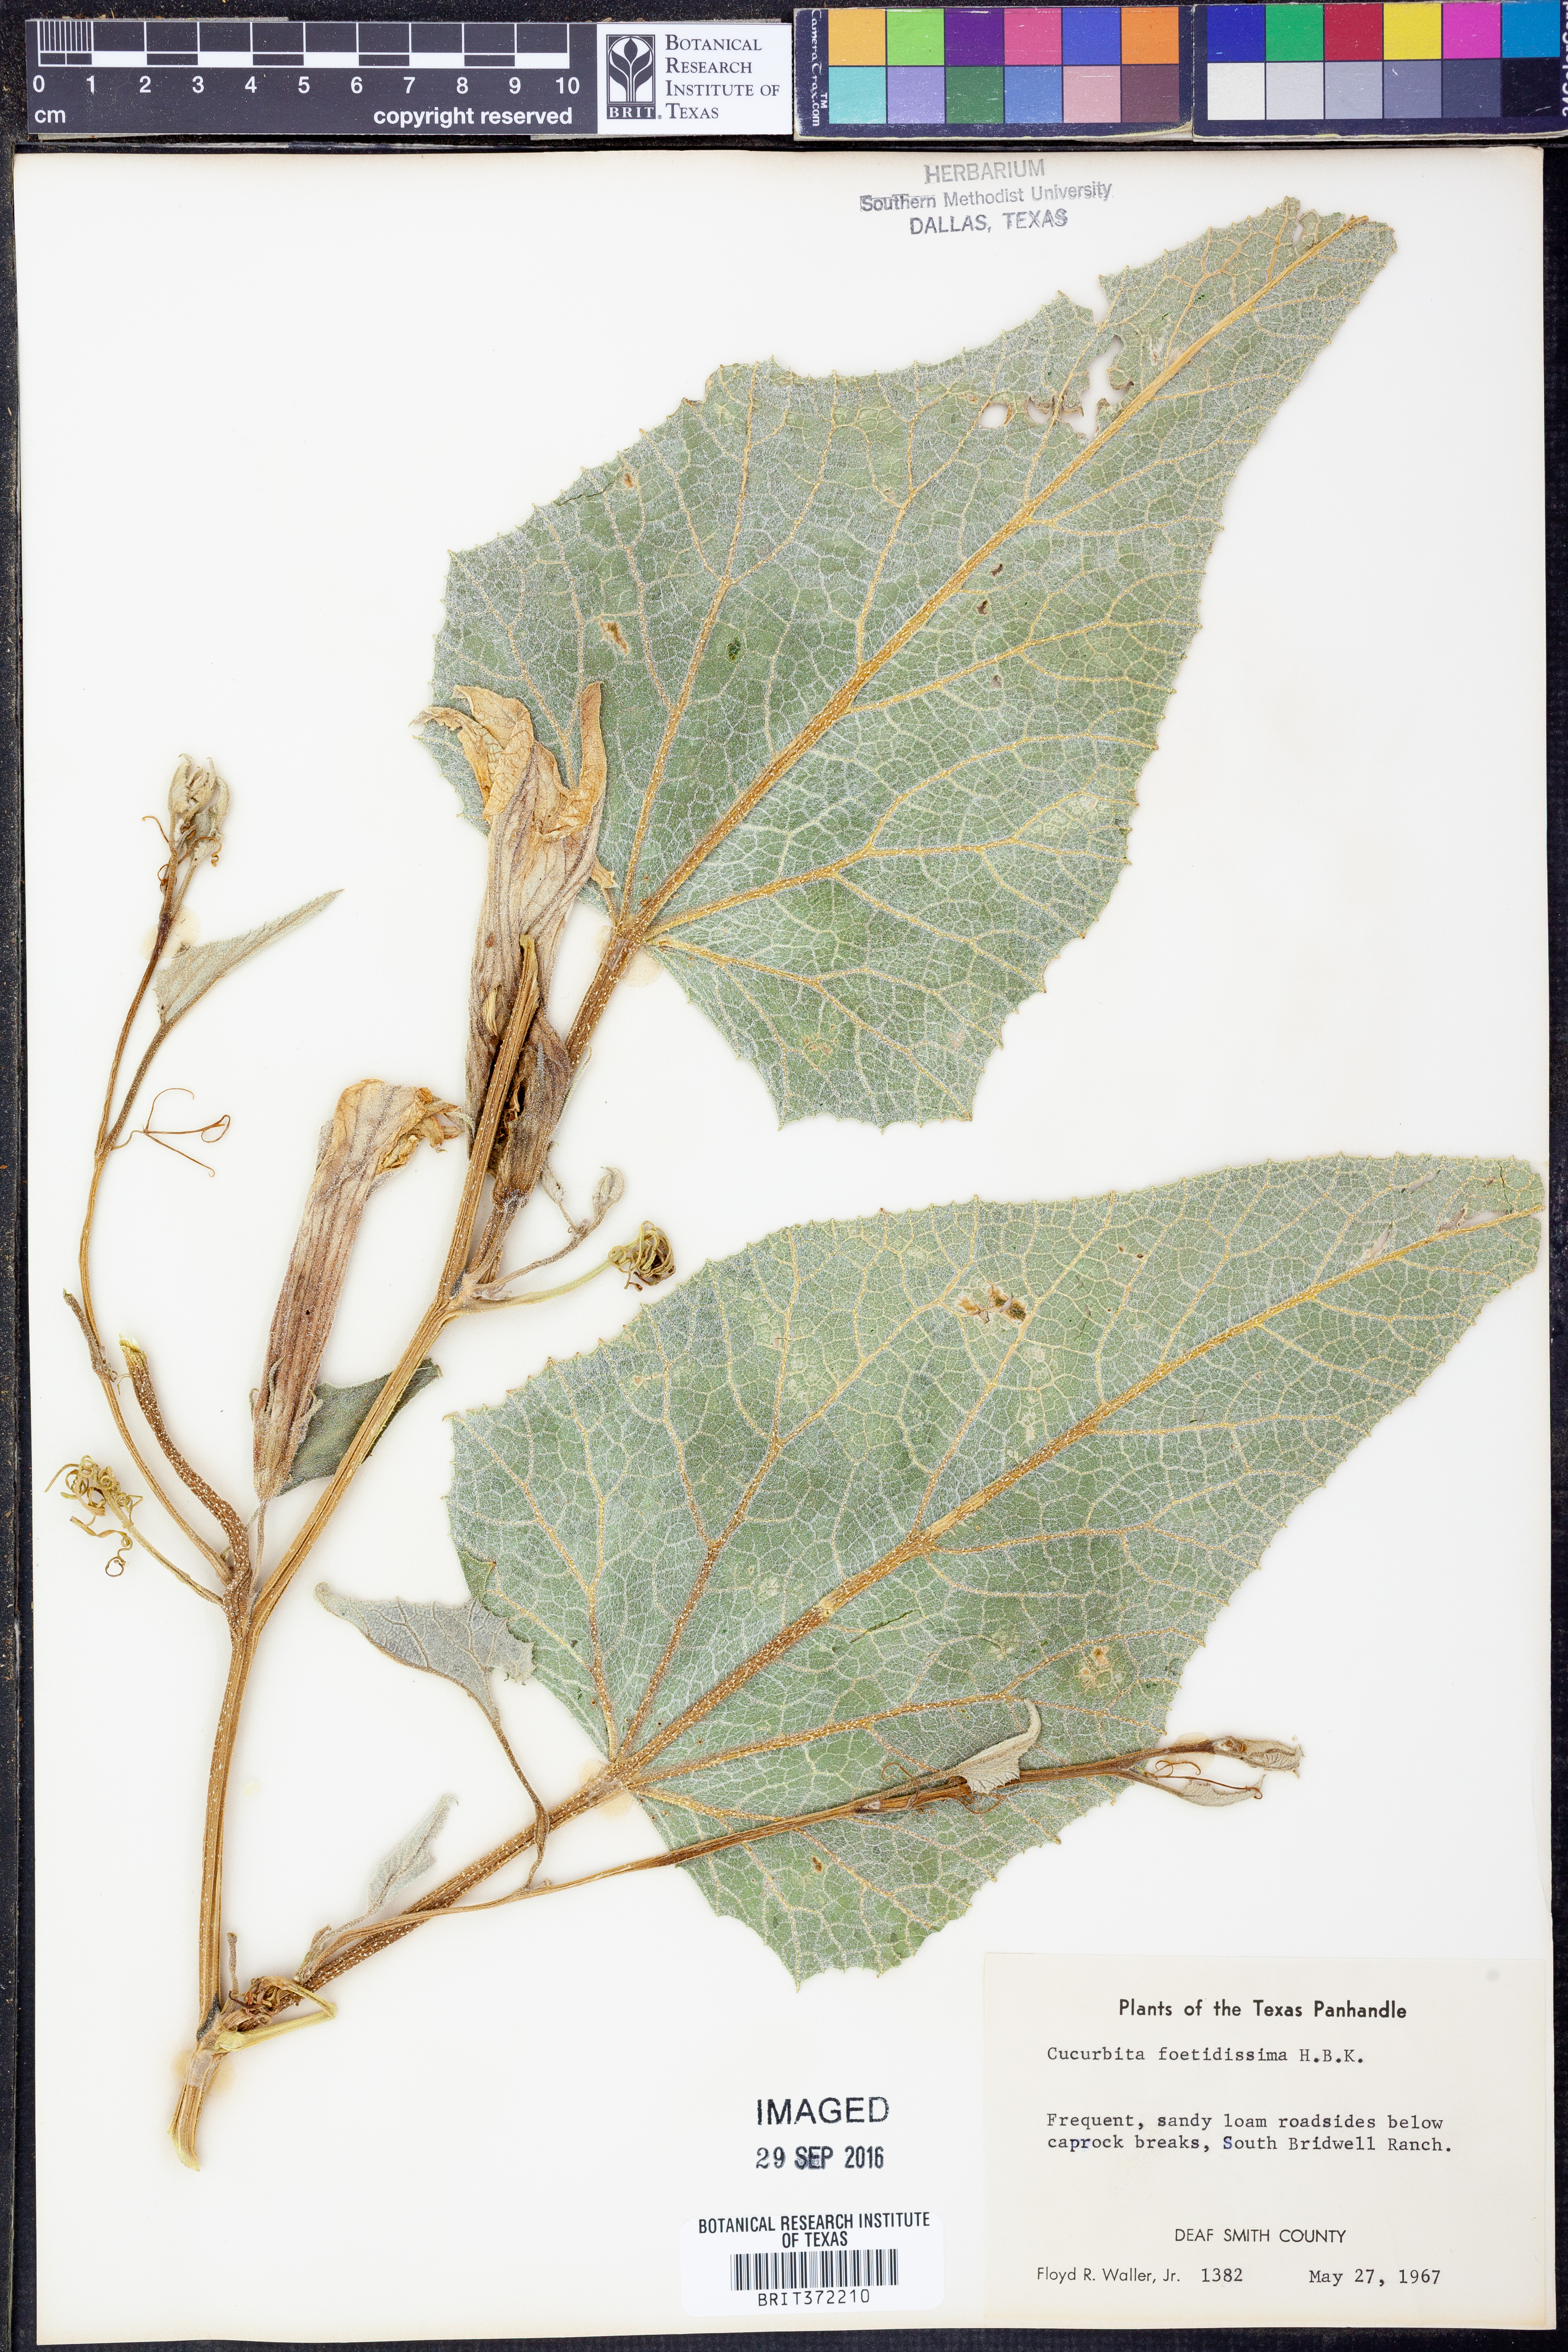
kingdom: Plantae
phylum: Tracheophyta
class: Magnoliopsida
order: Cucurbitales
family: Cucurbitaceae
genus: Cucurbita
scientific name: Cucurbita foetidissima
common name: Buffalo gourd
